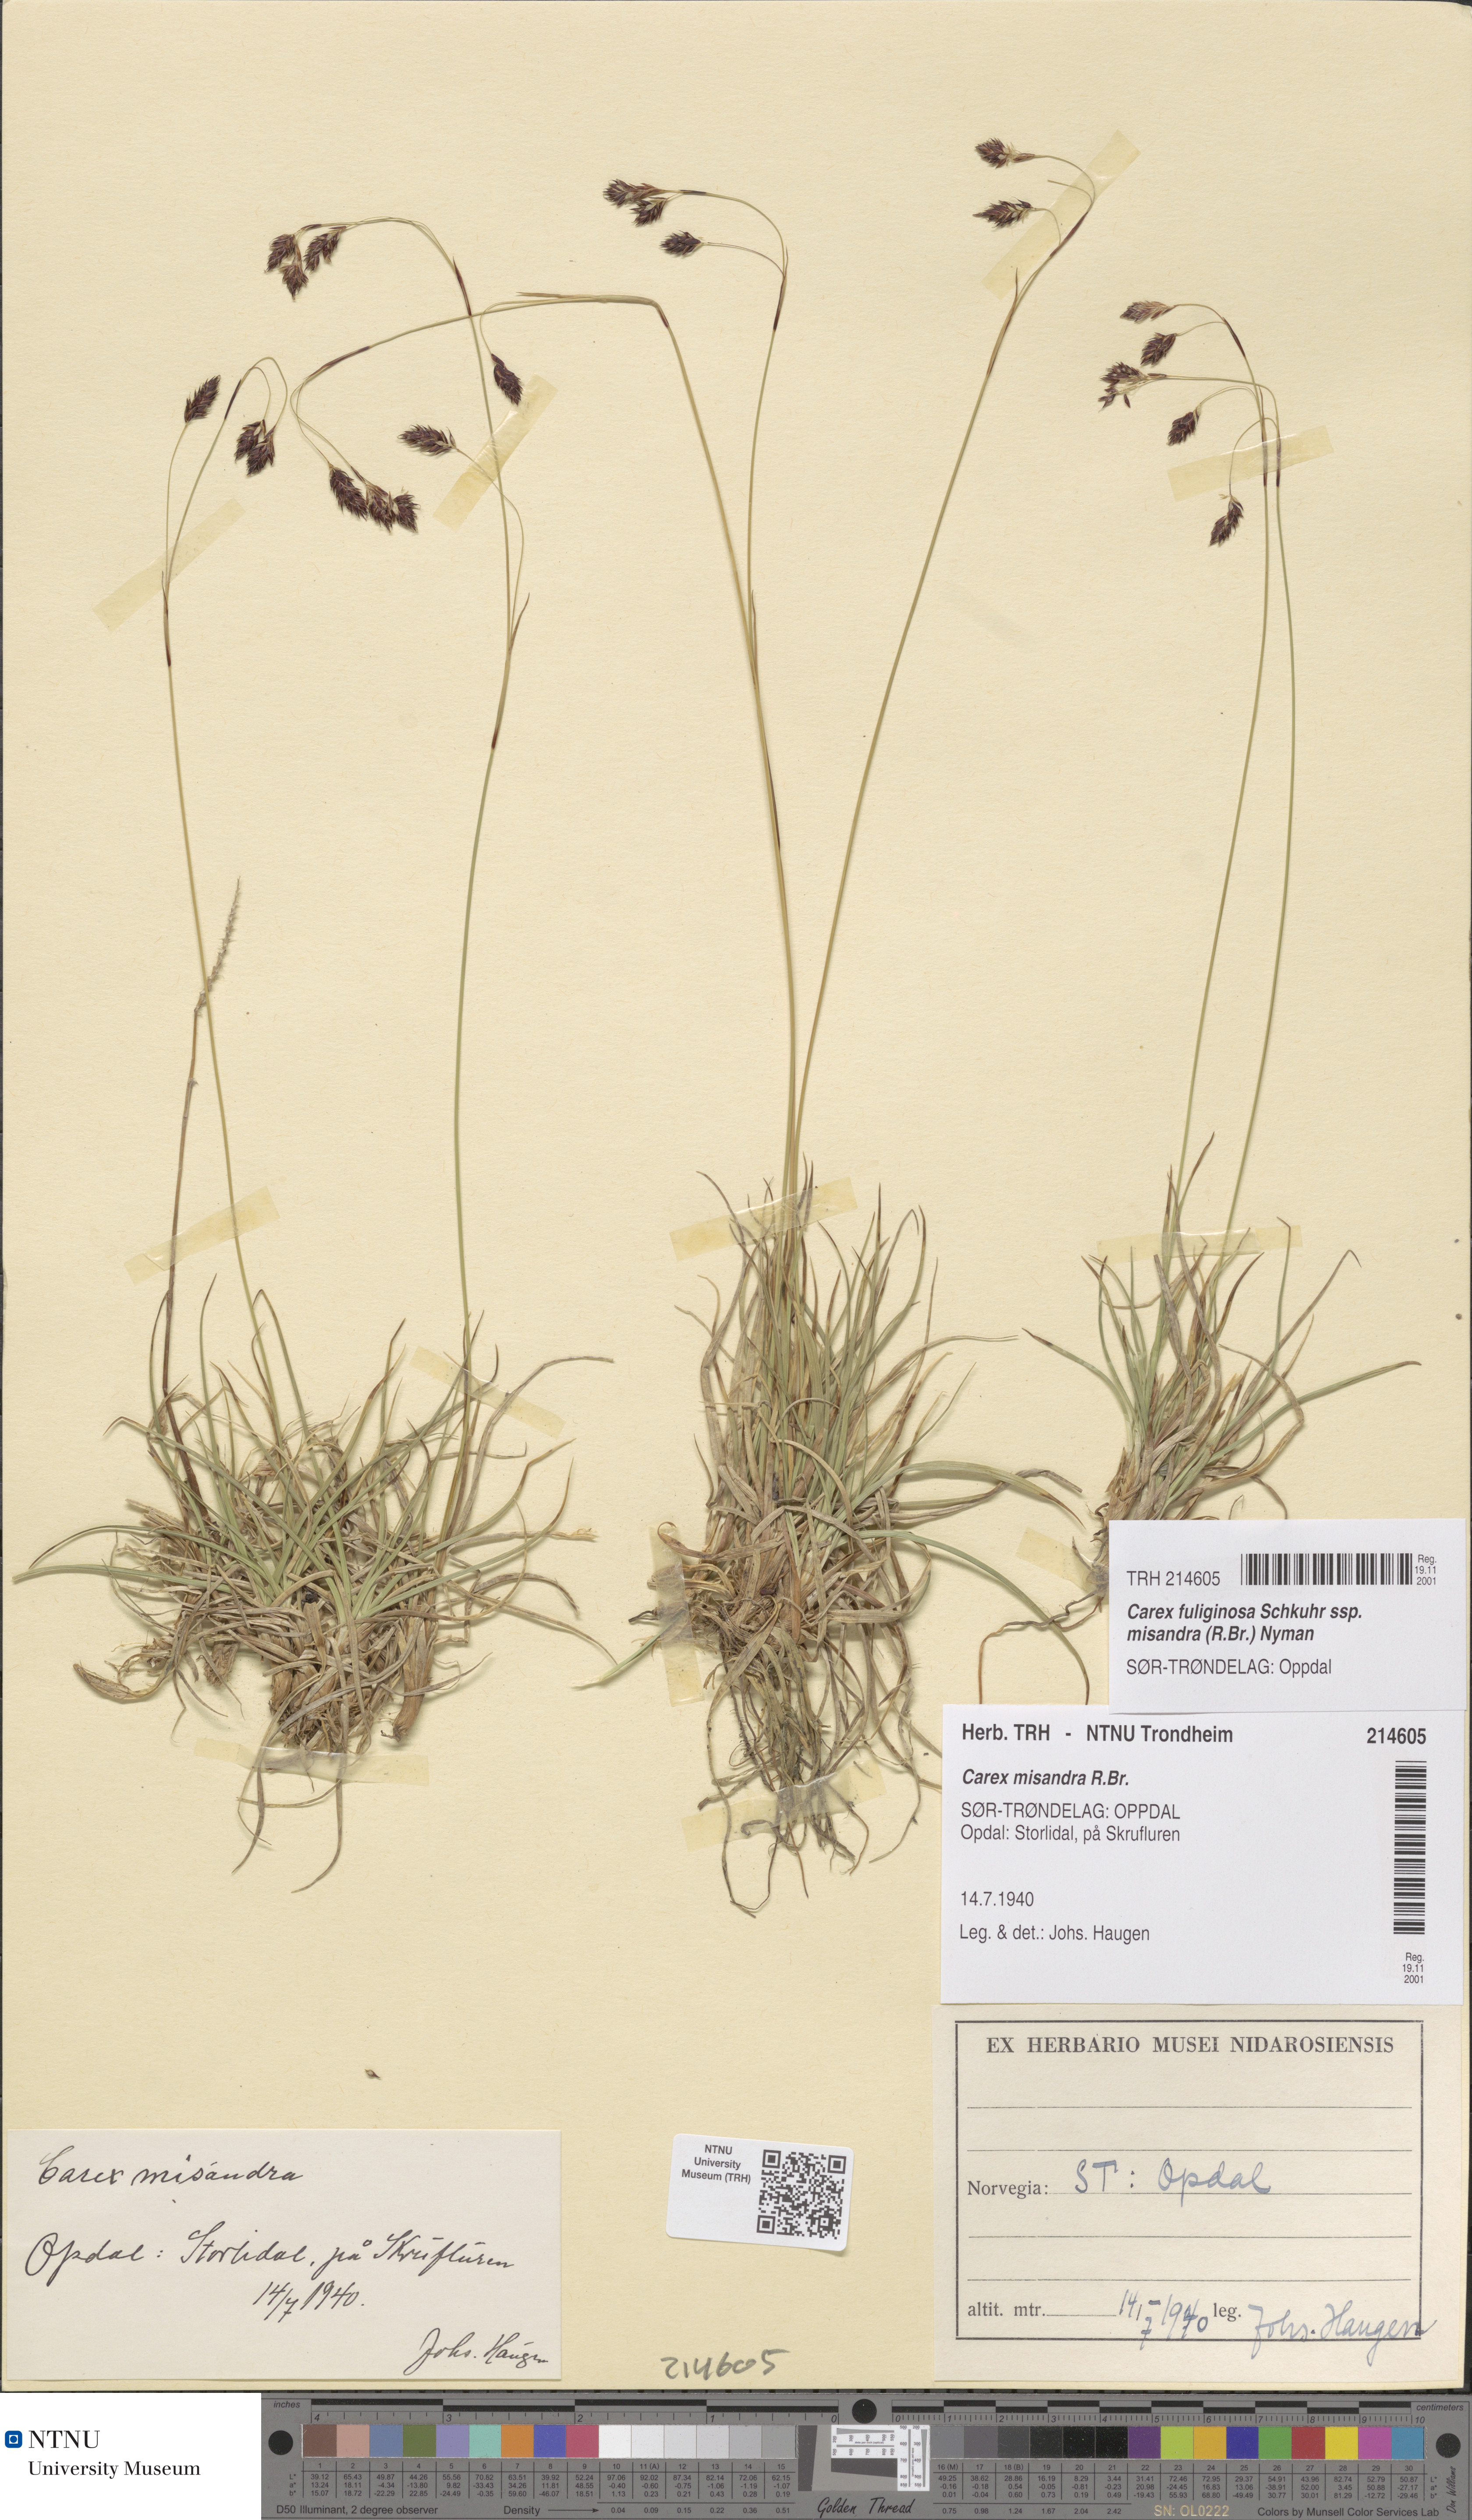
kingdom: Plantae
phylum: Tracheophyta
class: Liliopsida
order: Poales
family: Cyperaceae
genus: Carex
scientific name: Carex fuliginosa
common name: Few-flowered sedge
